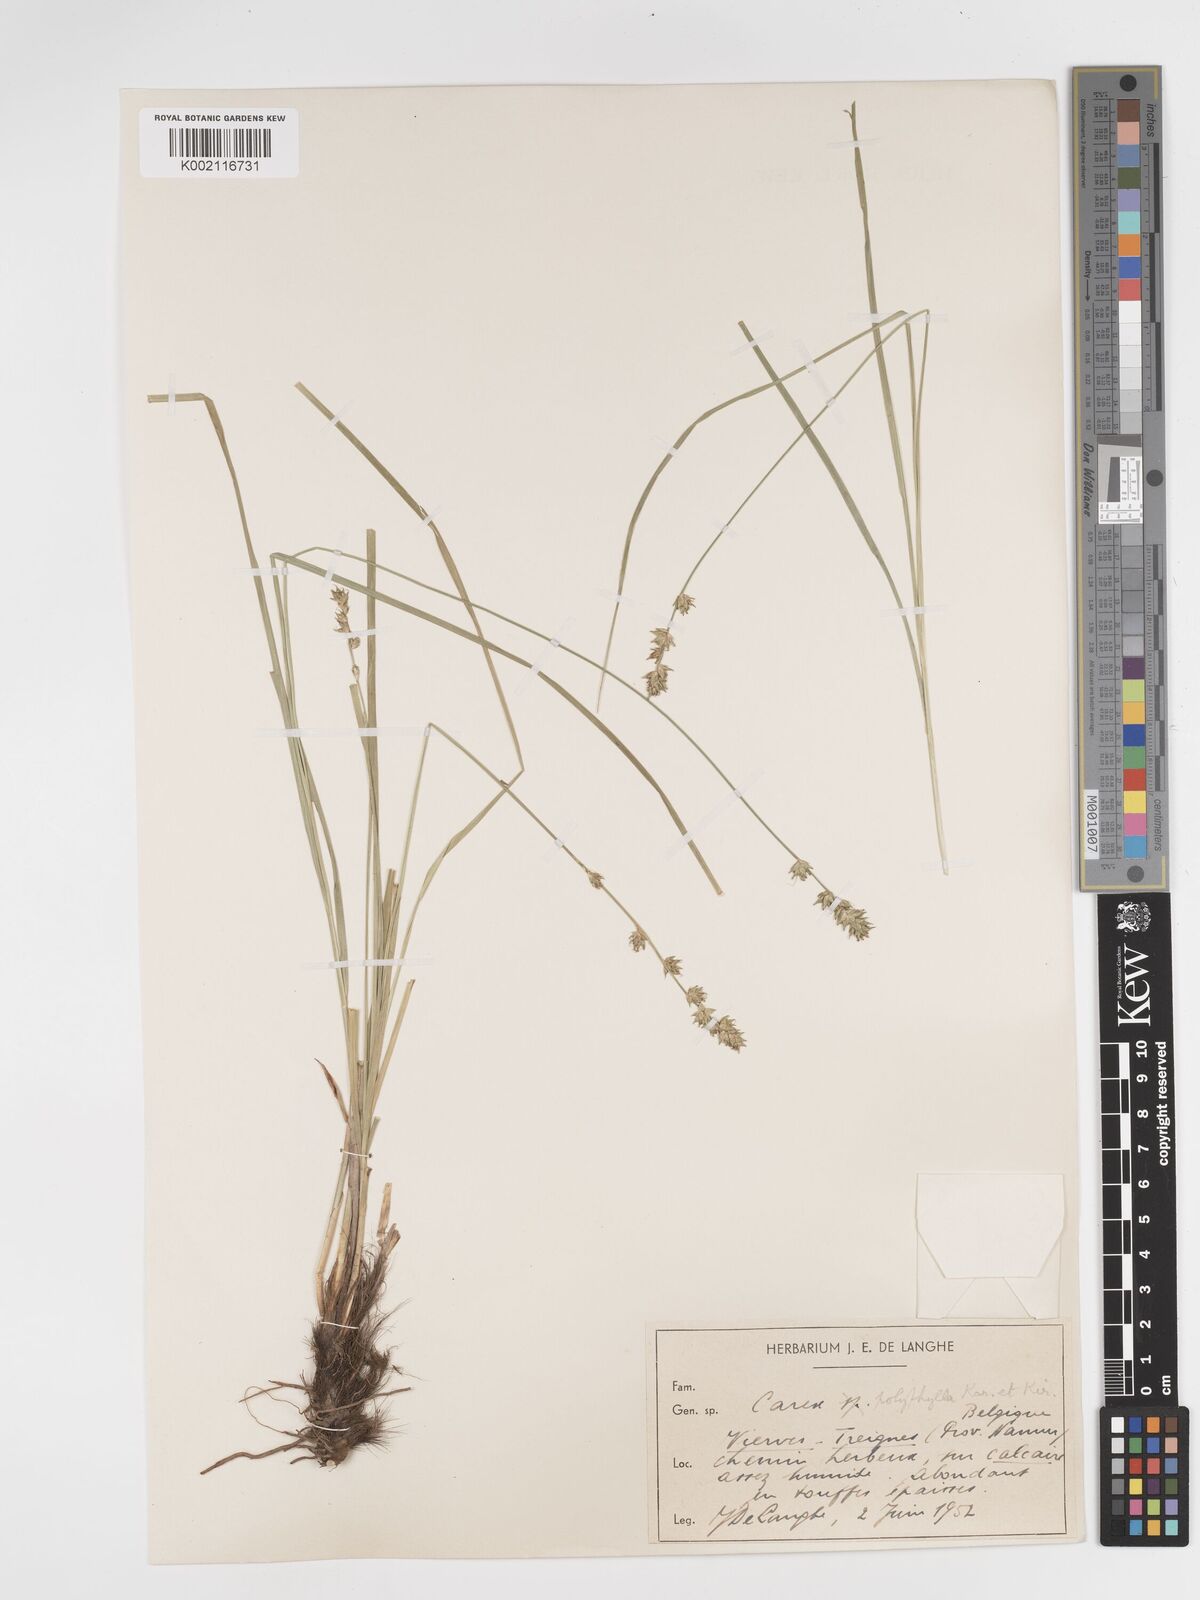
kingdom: Plantae
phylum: Tracheophyta
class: Liliopsida
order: Poales
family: Cyperaceae
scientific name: Cyperaceae
